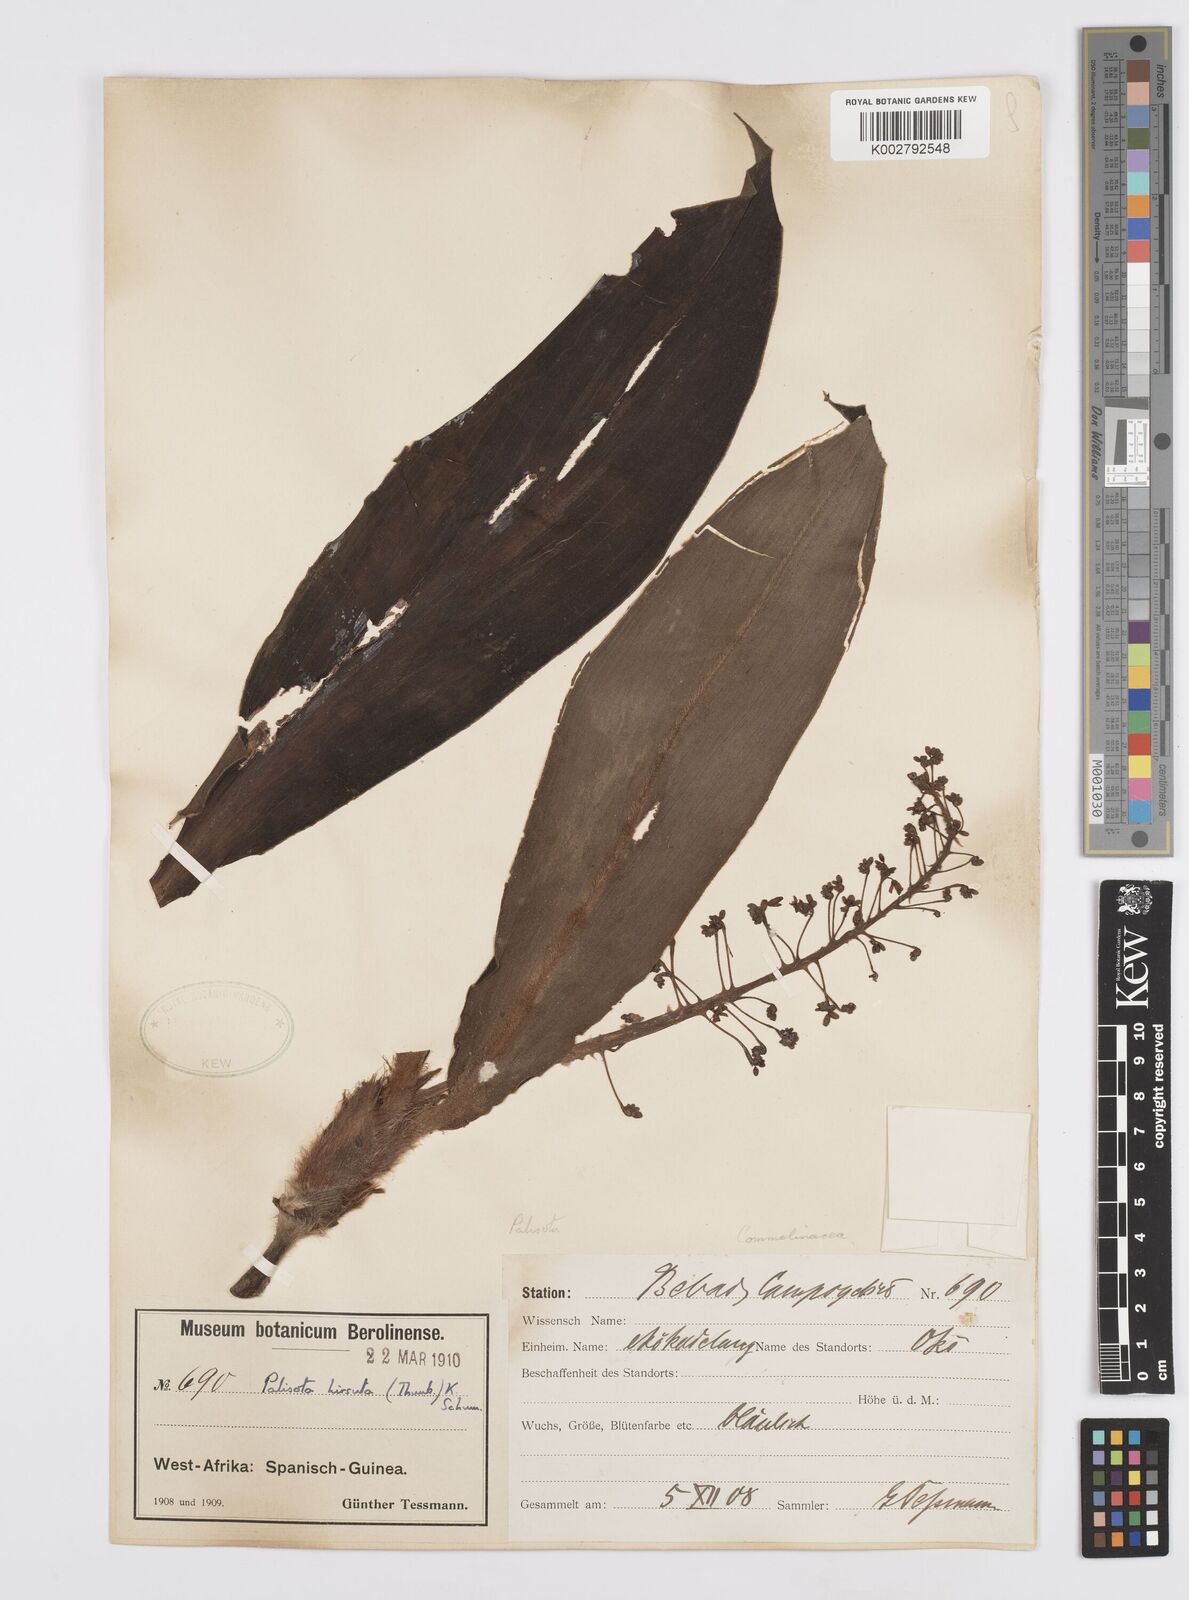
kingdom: Plantae
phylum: Tracheophyta
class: Liliopsida
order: Commelinales
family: Commelinaceae
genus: Palisota
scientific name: Palisota hirsuta
